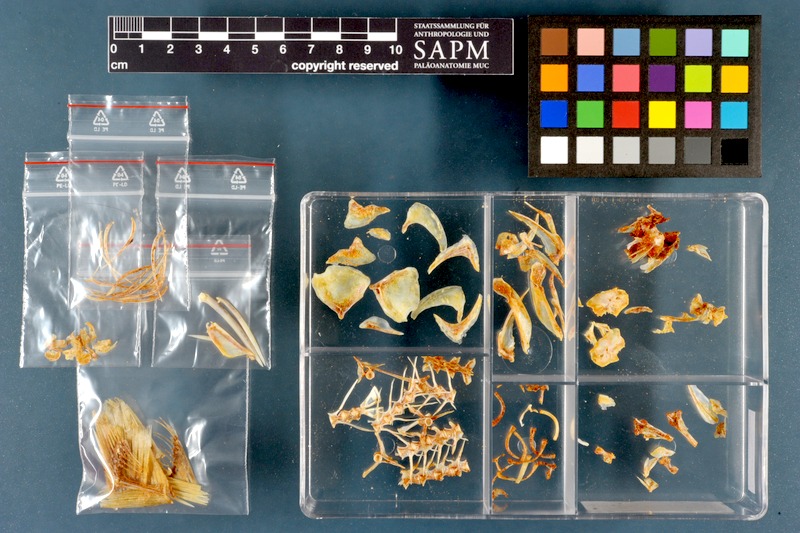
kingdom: Animalia
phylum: Chordata
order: Mugiliformes
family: Mugilidae
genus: Planiliza
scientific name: Planiliza abu
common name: Abu mullet
